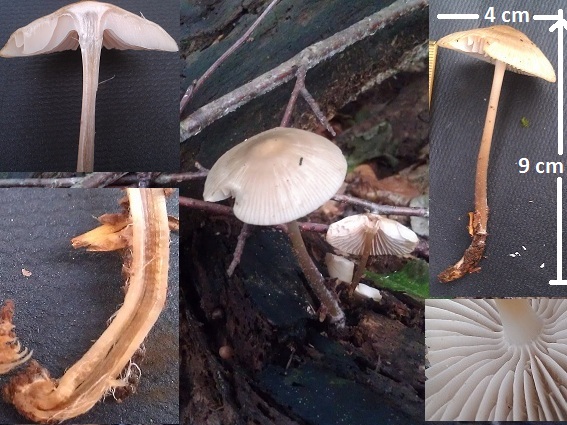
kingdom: Fungi
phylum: Basidiomycota
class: Agaricomycetes
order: Agaricales
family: Mycenaceae
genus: Mycena
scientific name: Mycena galericulata
